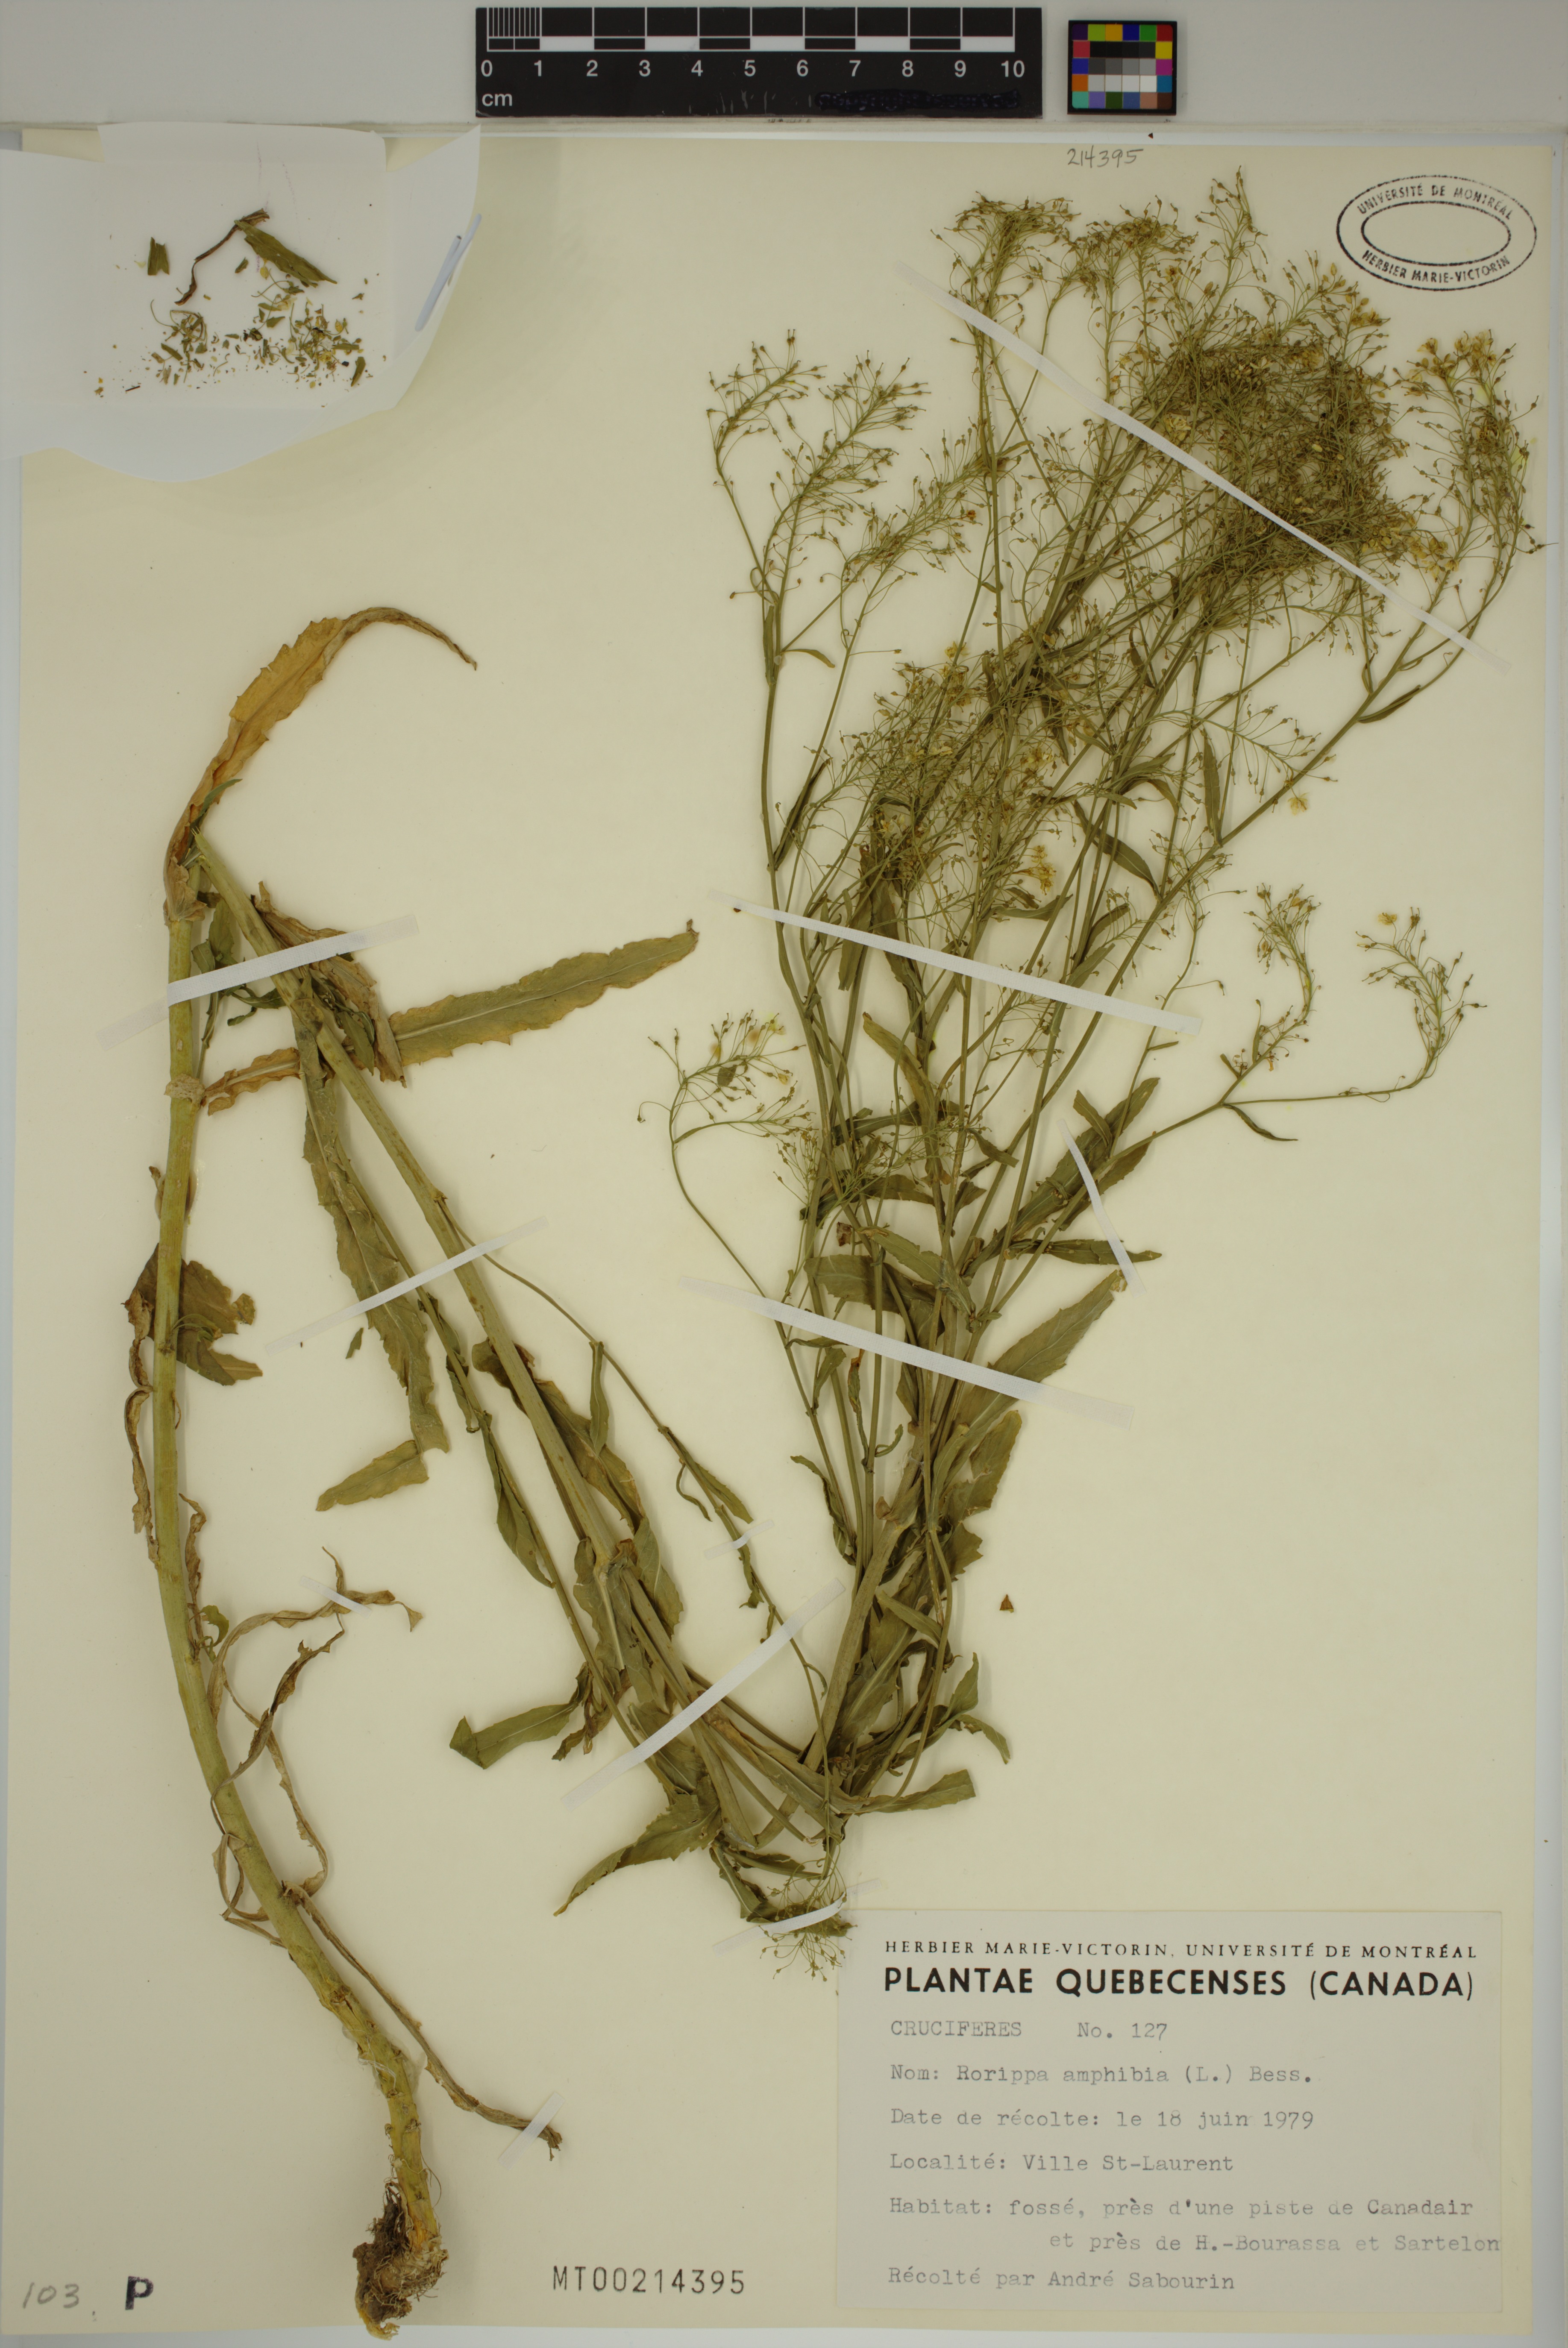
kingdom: Plantae
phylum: Tracheophyta
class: Magnoliopsida
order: Brassicales
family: Brassicaceae
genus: Rorippa
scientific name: Rorippa amphibia
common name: Great yellow-cress
